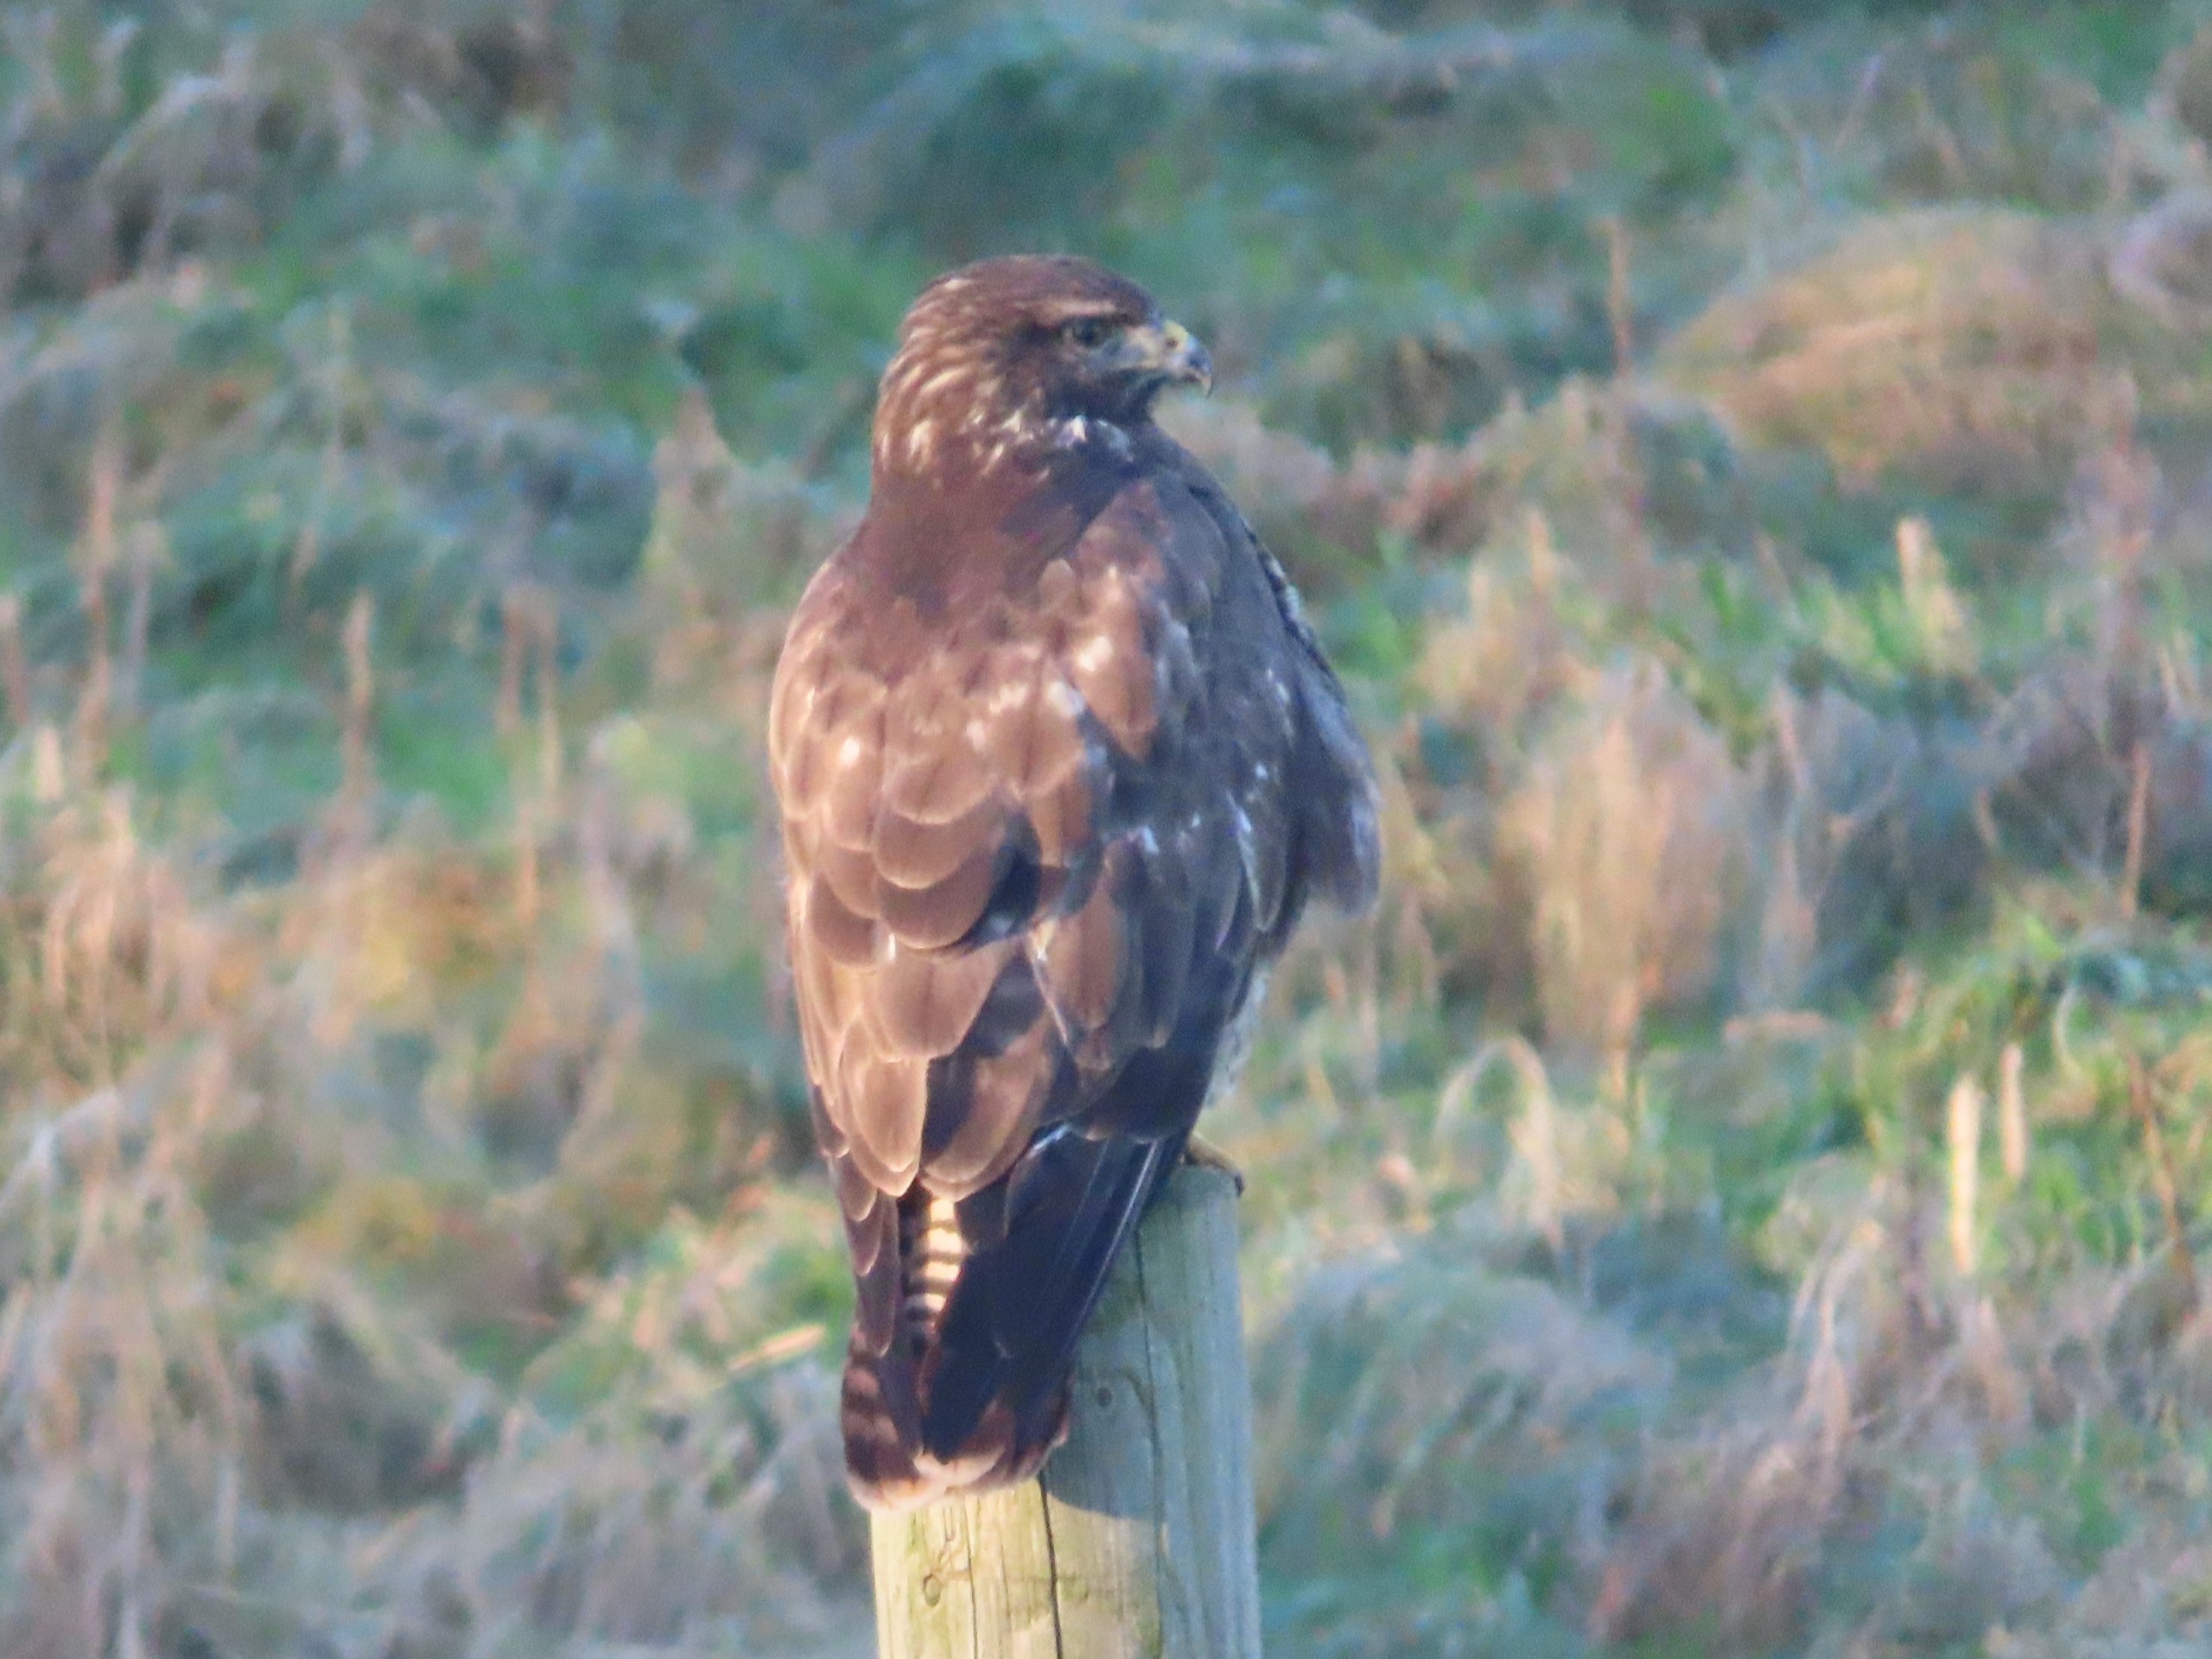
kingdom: Animalia
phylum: Chordata
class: Aves
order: Accipitriformes
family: Accipitridae
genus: Buteo
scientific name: Buteo buteo
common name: Musvåge
